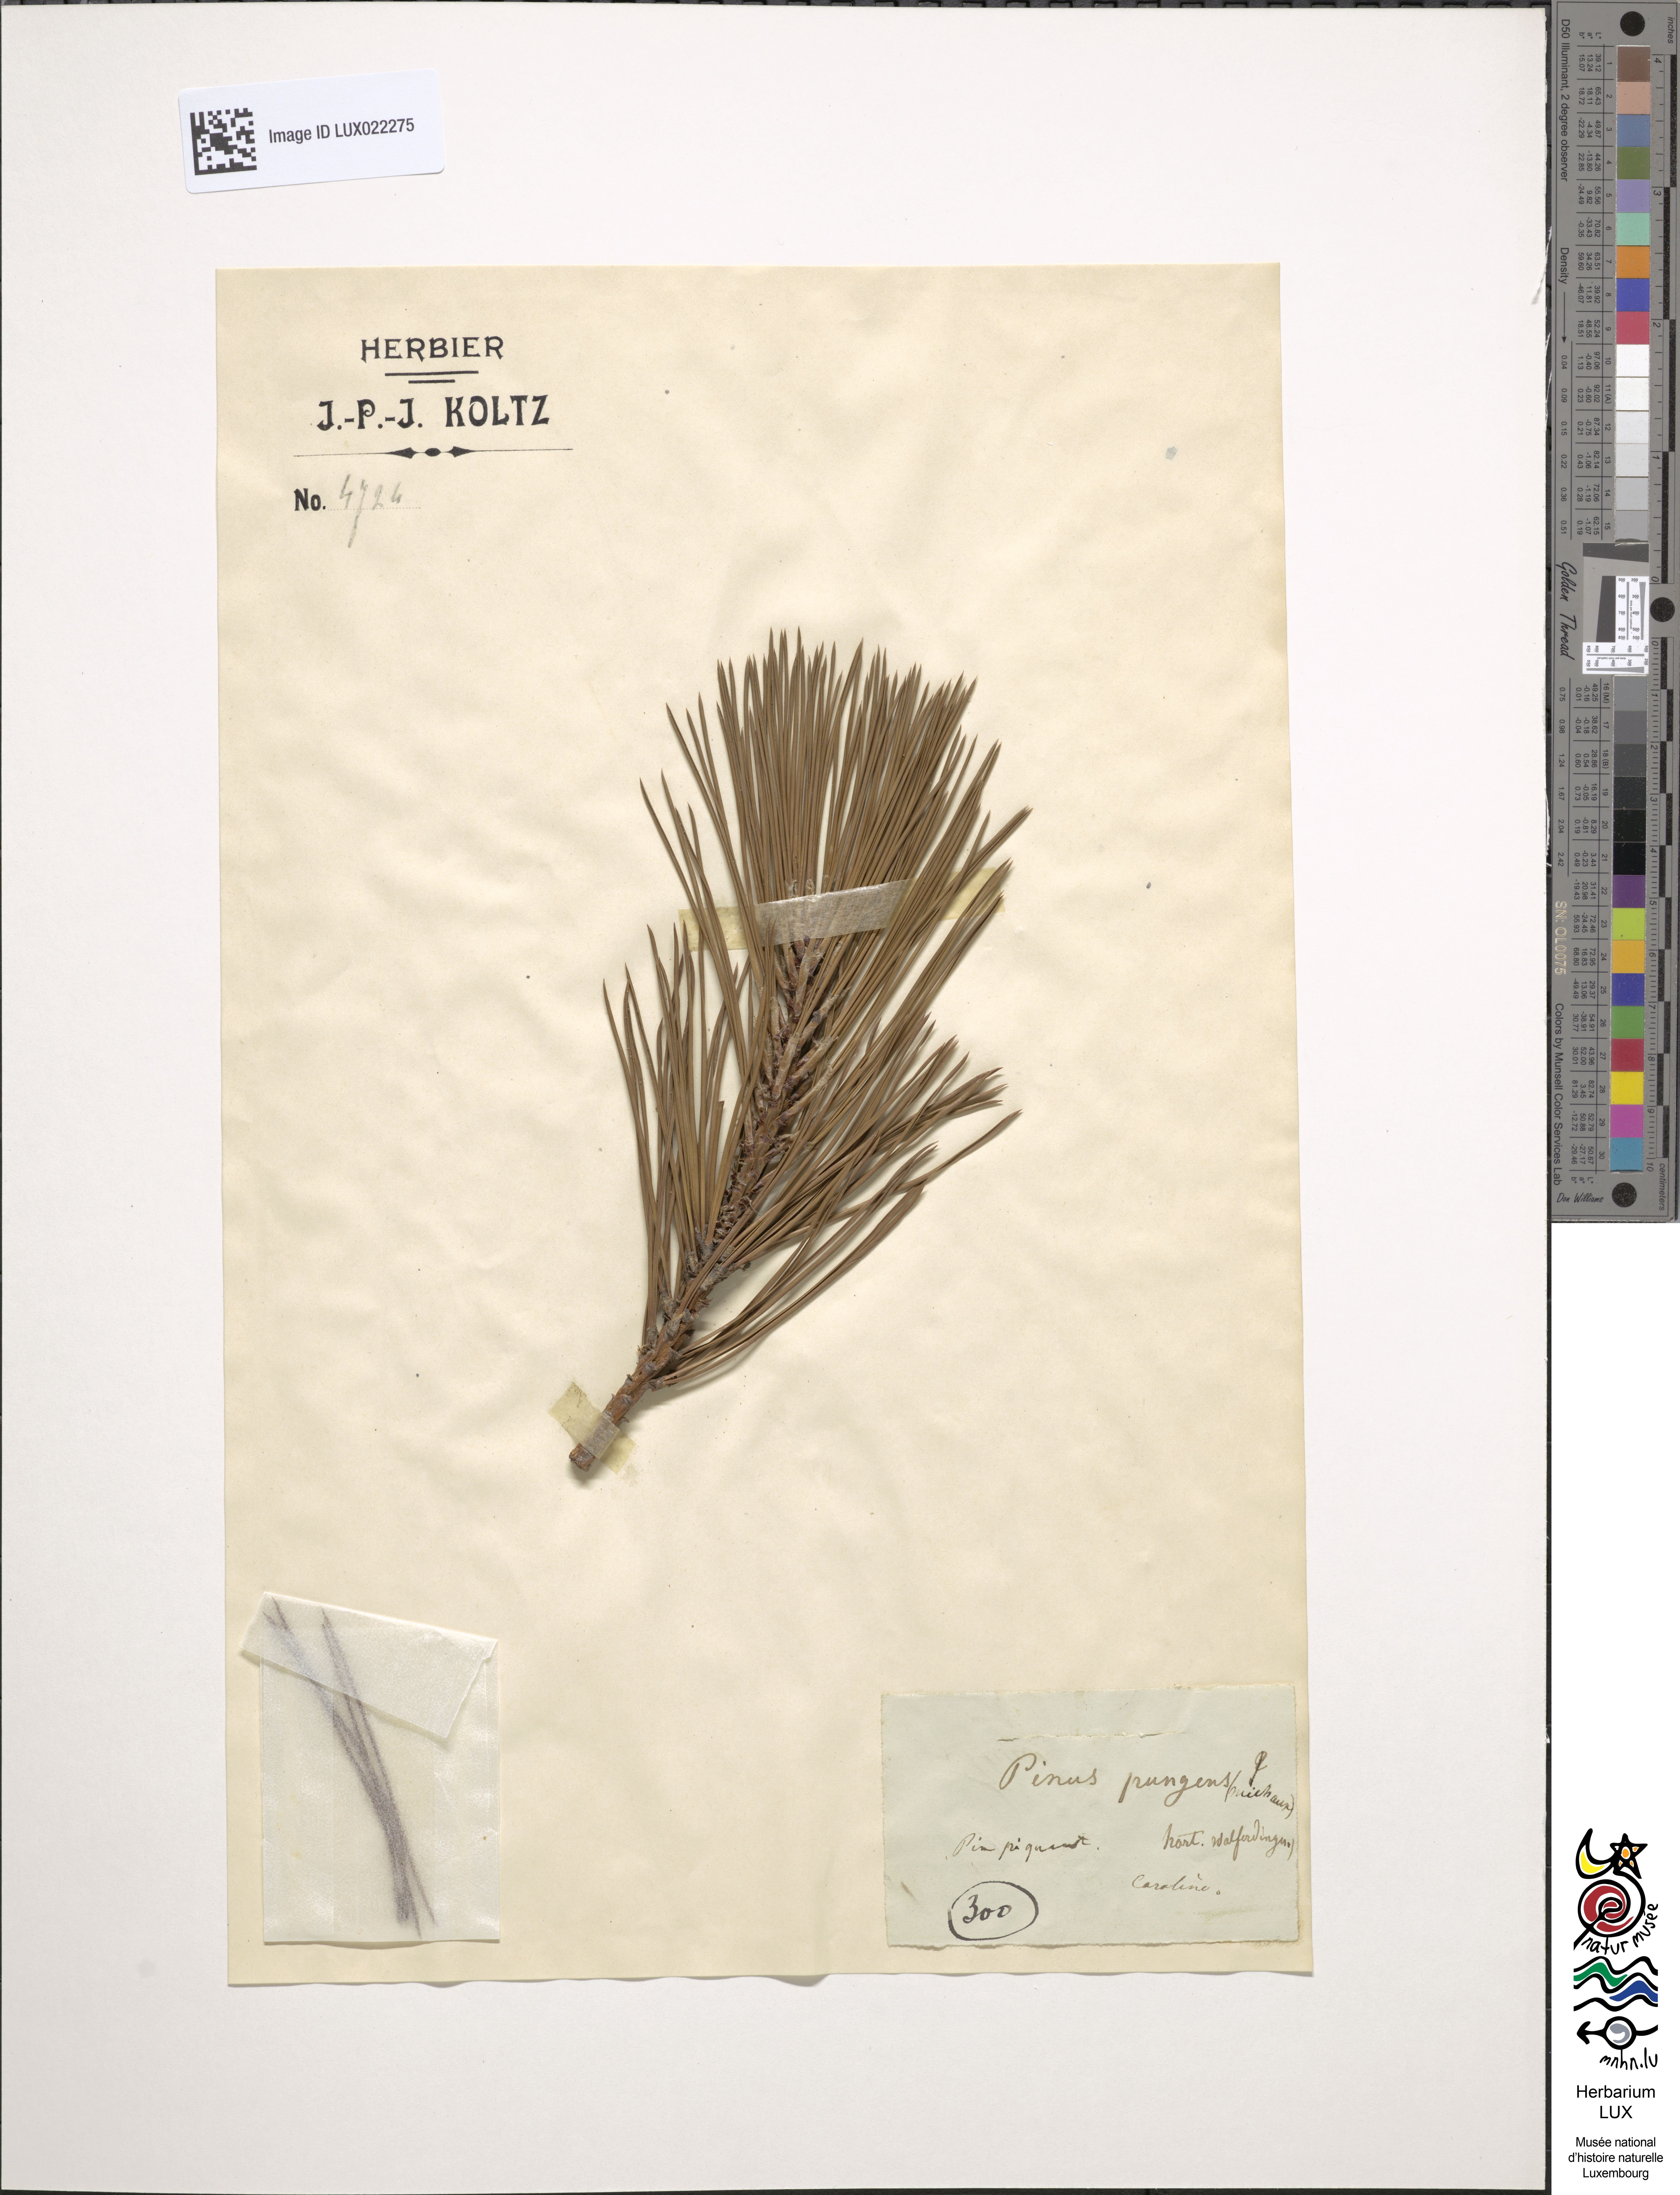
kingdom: Plantae
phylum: Tracheophyta
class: Pinopsida
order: Pinales
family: Pinaceae
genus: Pinus
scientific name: Pinus
